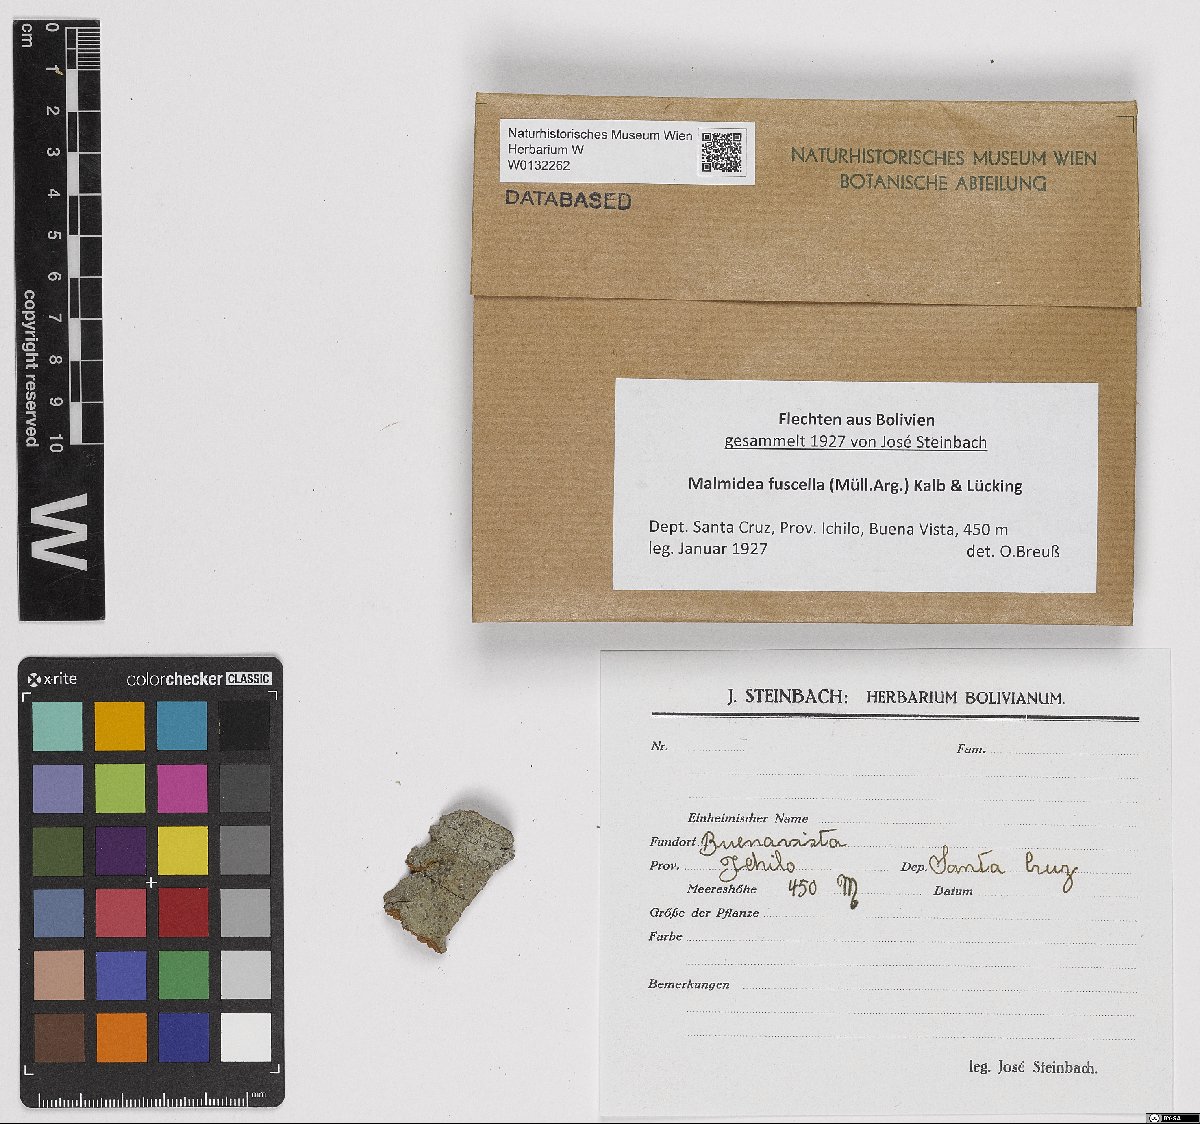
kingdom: Fungi
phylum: Ascomycota
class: Lecanoromycetes
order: Lecanorales
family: Malmideaceae
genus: Malmidea
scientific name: Malmidea fuscella
